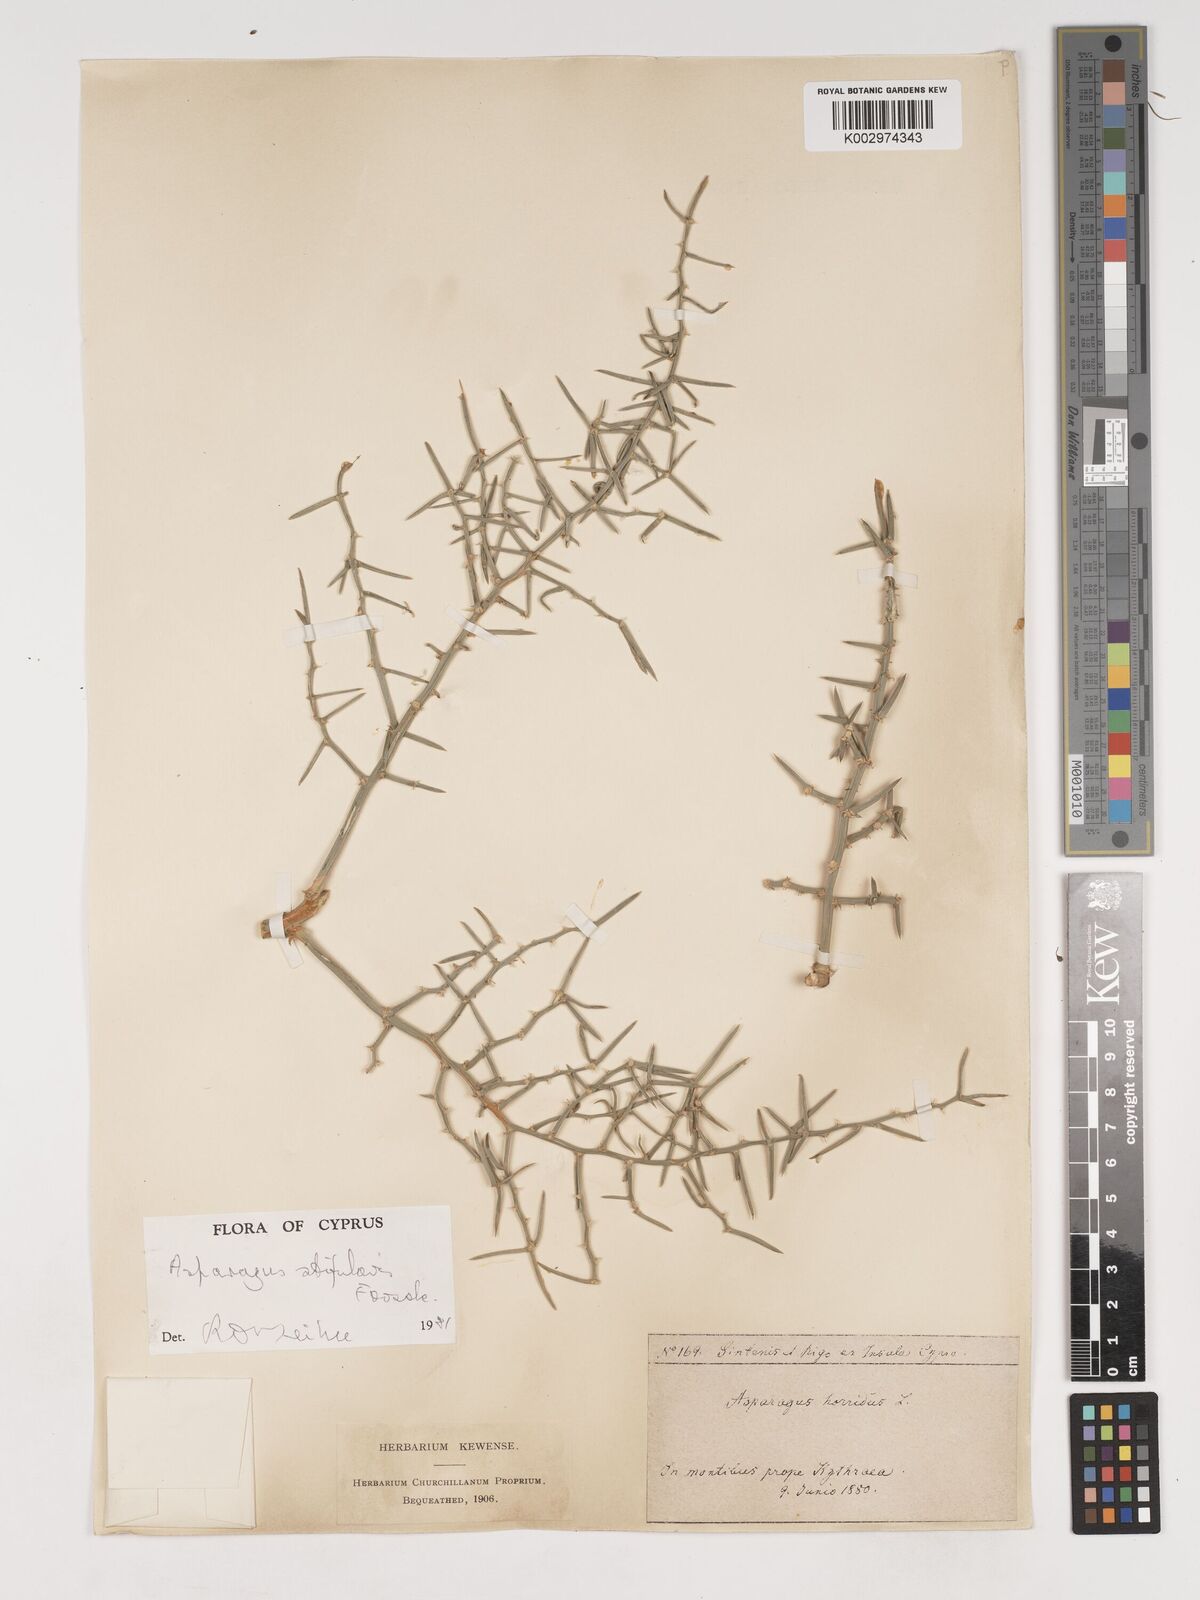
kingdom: Plantae
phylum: Tracheophyta
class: Liliopsida
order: Asparagales
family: Asparagaceae
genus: Asparagus
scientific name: Asparagus horridus
